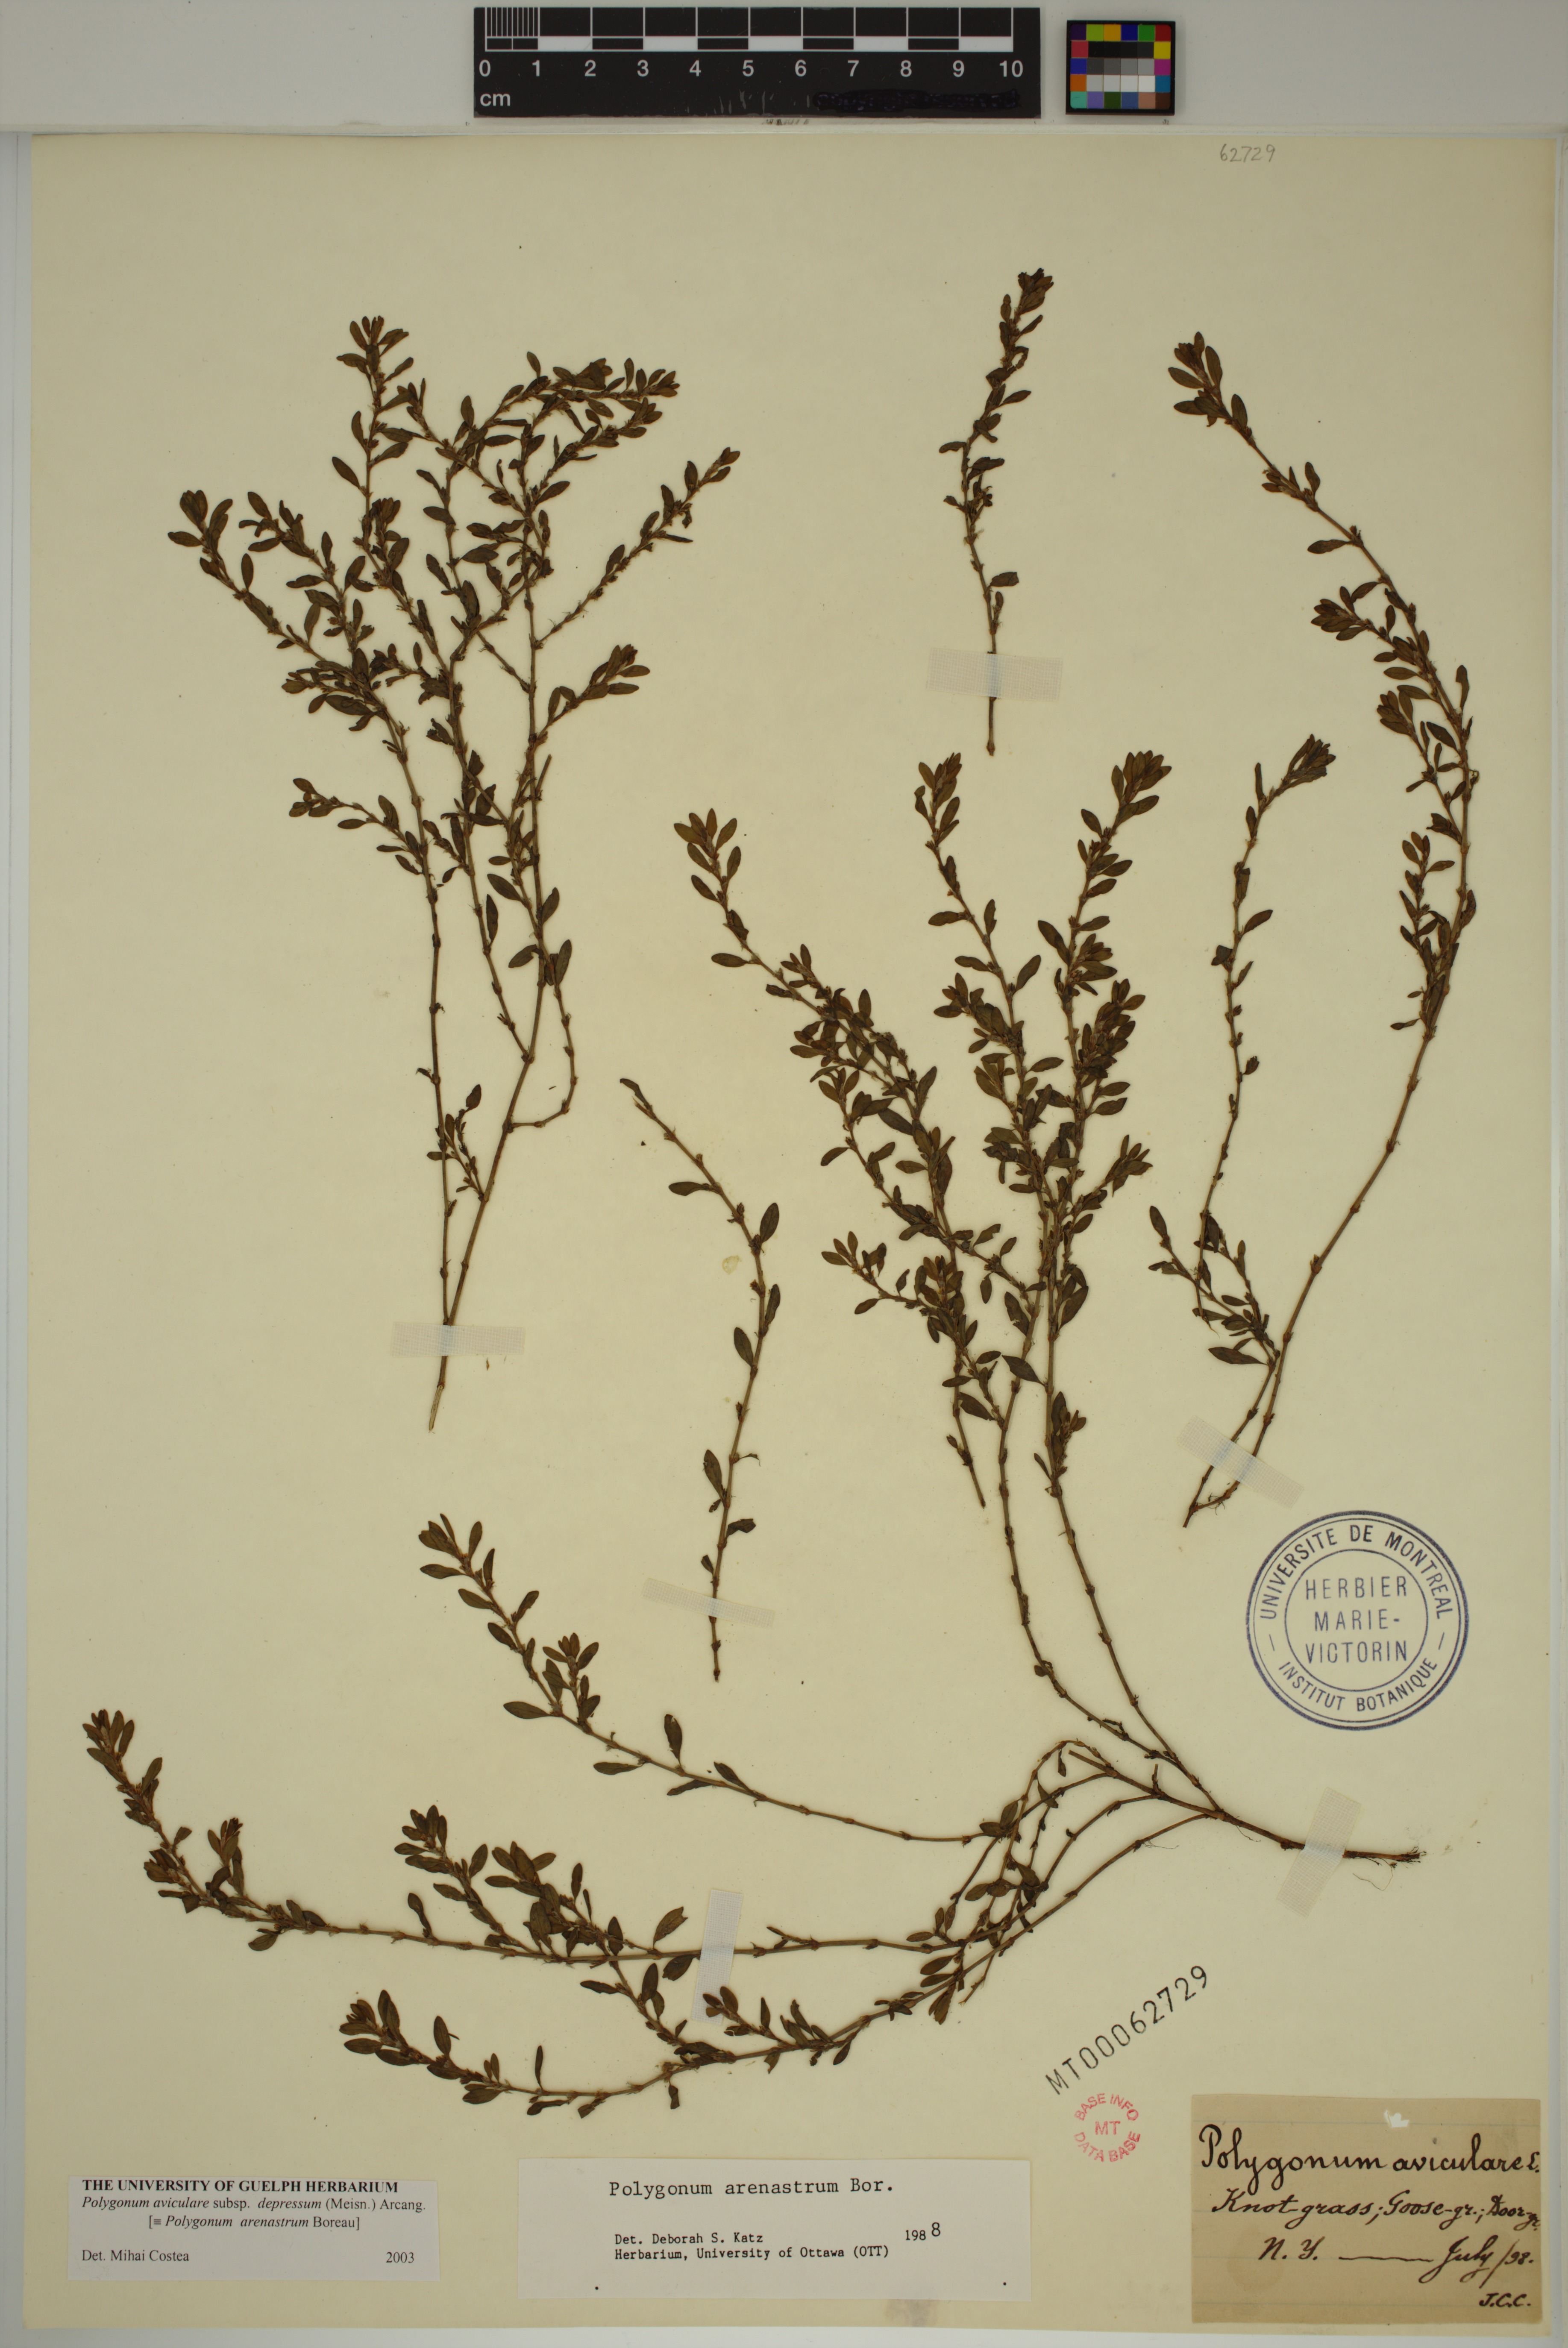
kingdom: Plantae
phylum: Tracheophyta
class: Magnoliopsida
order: Caryophyllales
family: Polygonaceae
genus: Polygonum
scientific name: Polygonum arenastrum
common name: Equal-leaved knotgrass
